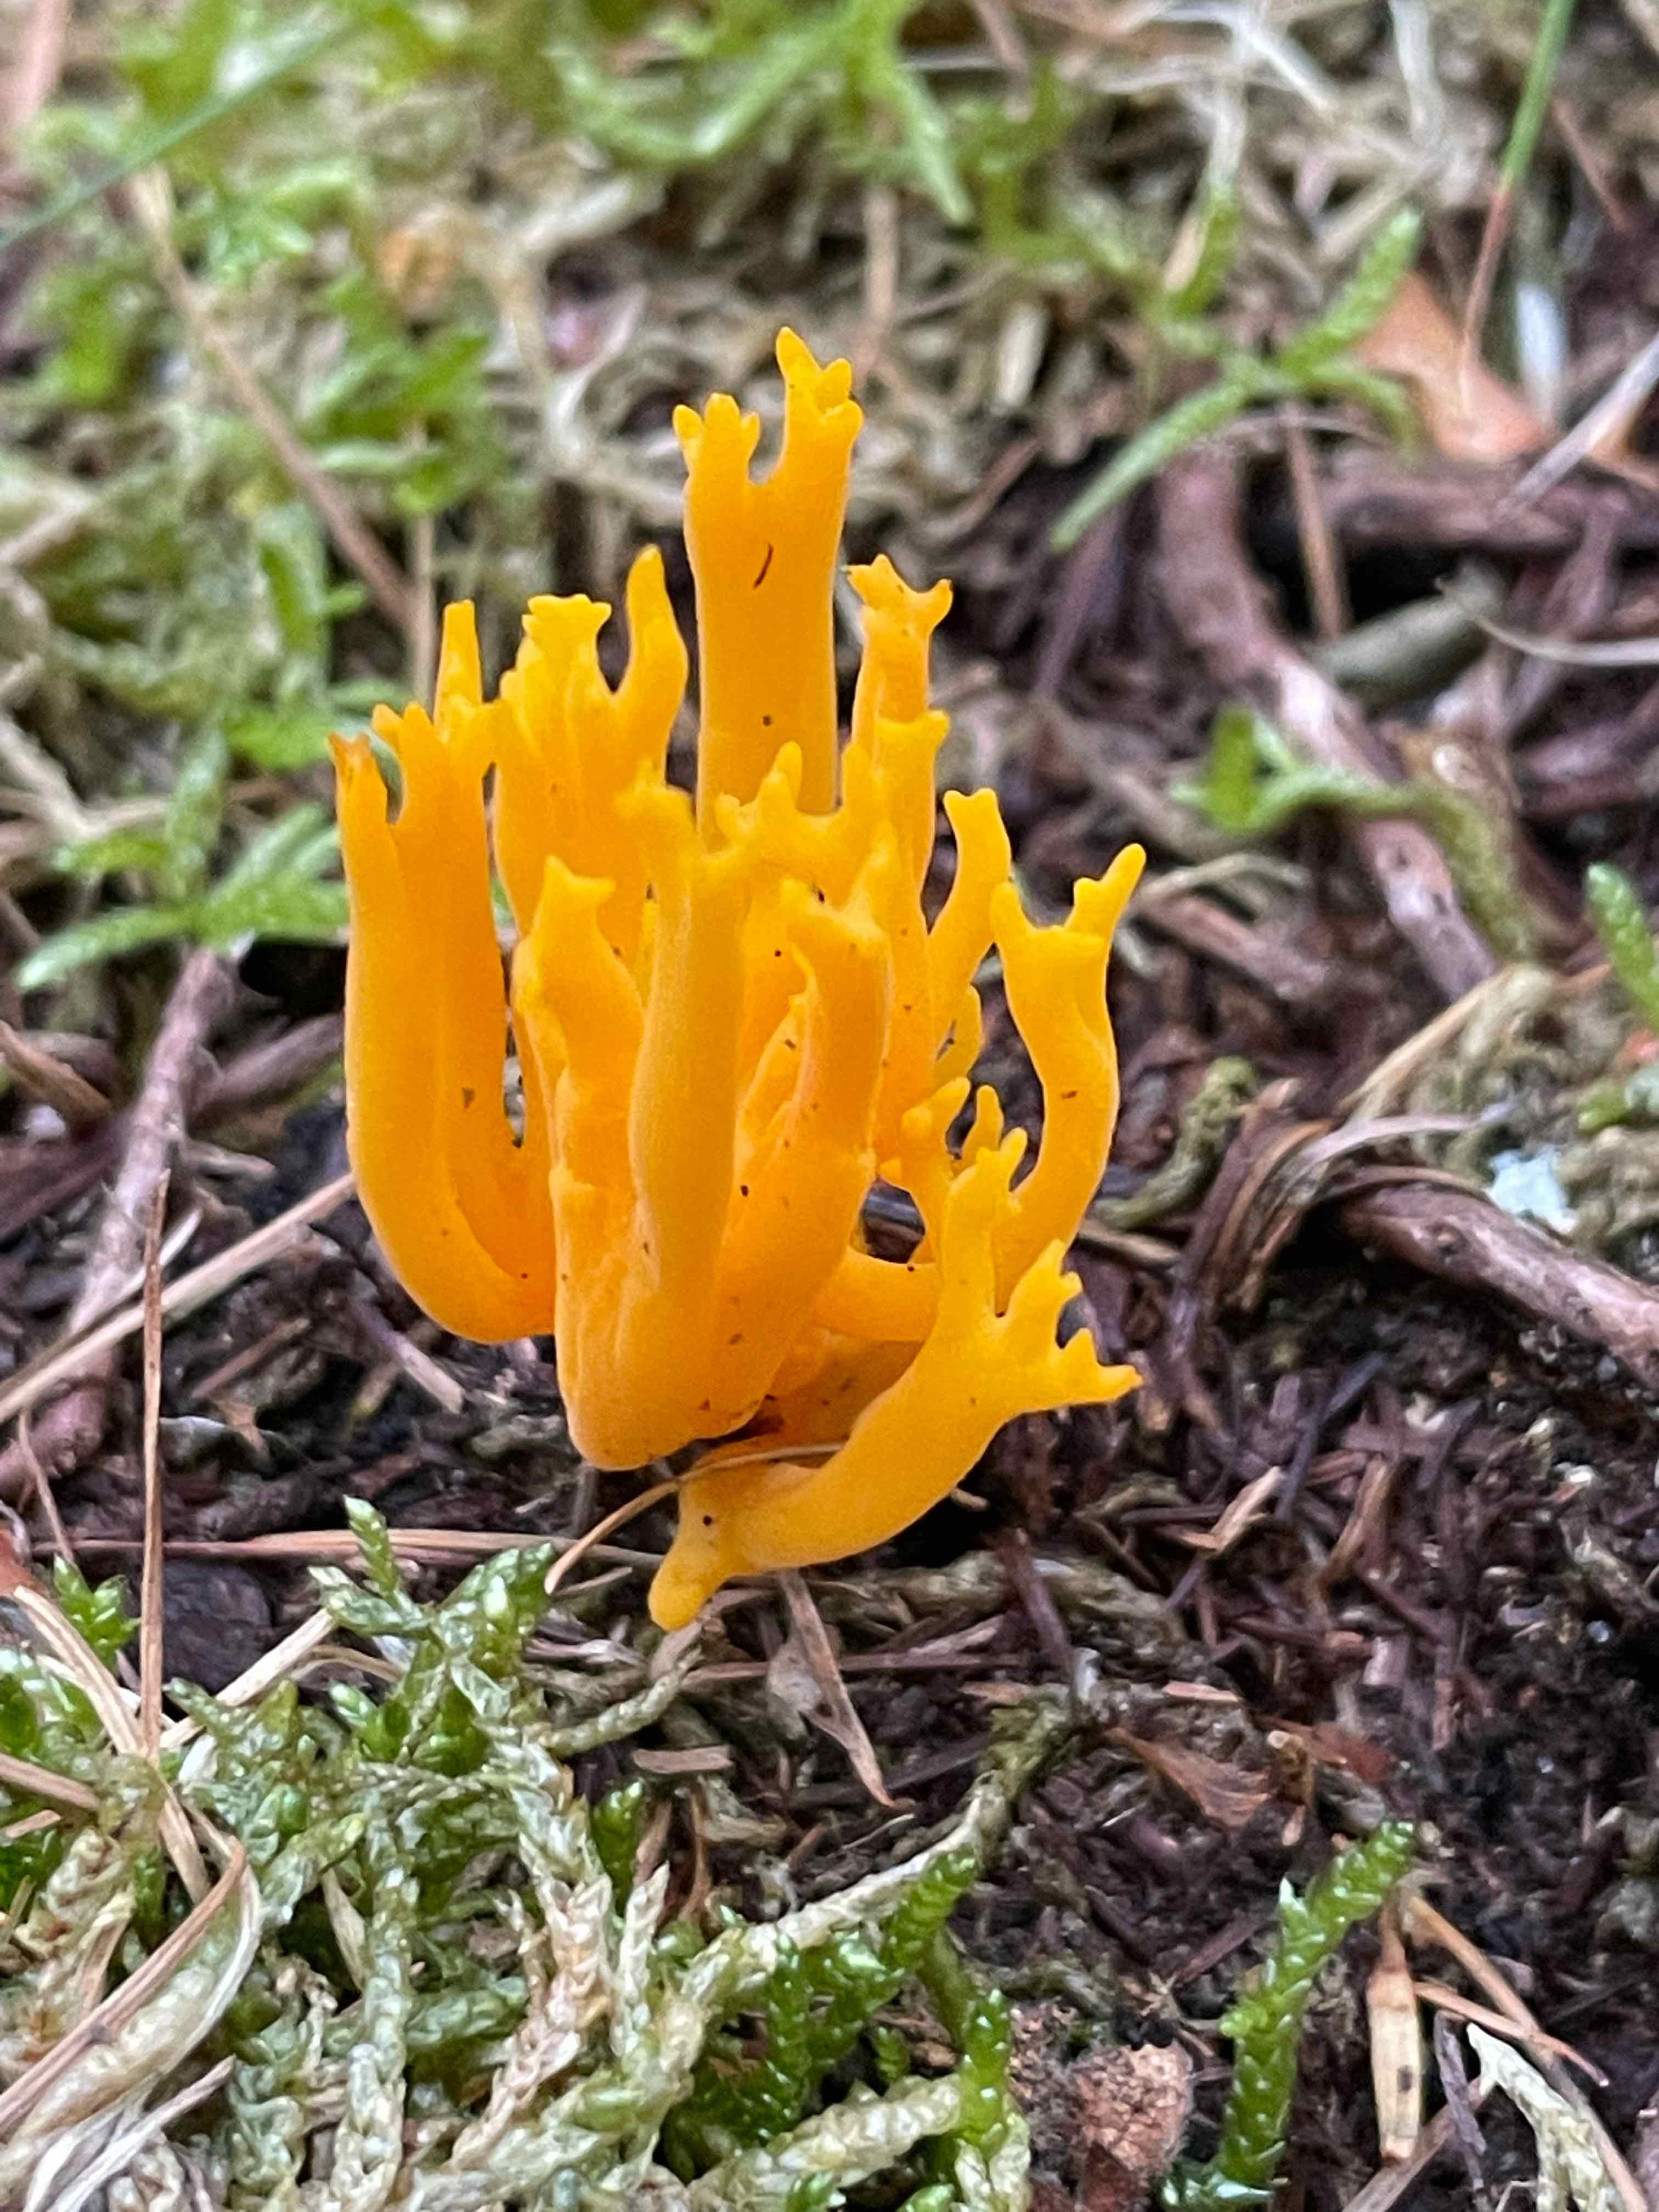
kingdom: Fungi
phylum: Basidiomycota
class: Dacrymycetes
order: Dacrymycetales
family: Dacrymycetaceae
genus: Calocera
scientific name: Calocera viscosa
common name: almindelig guldgaffel
